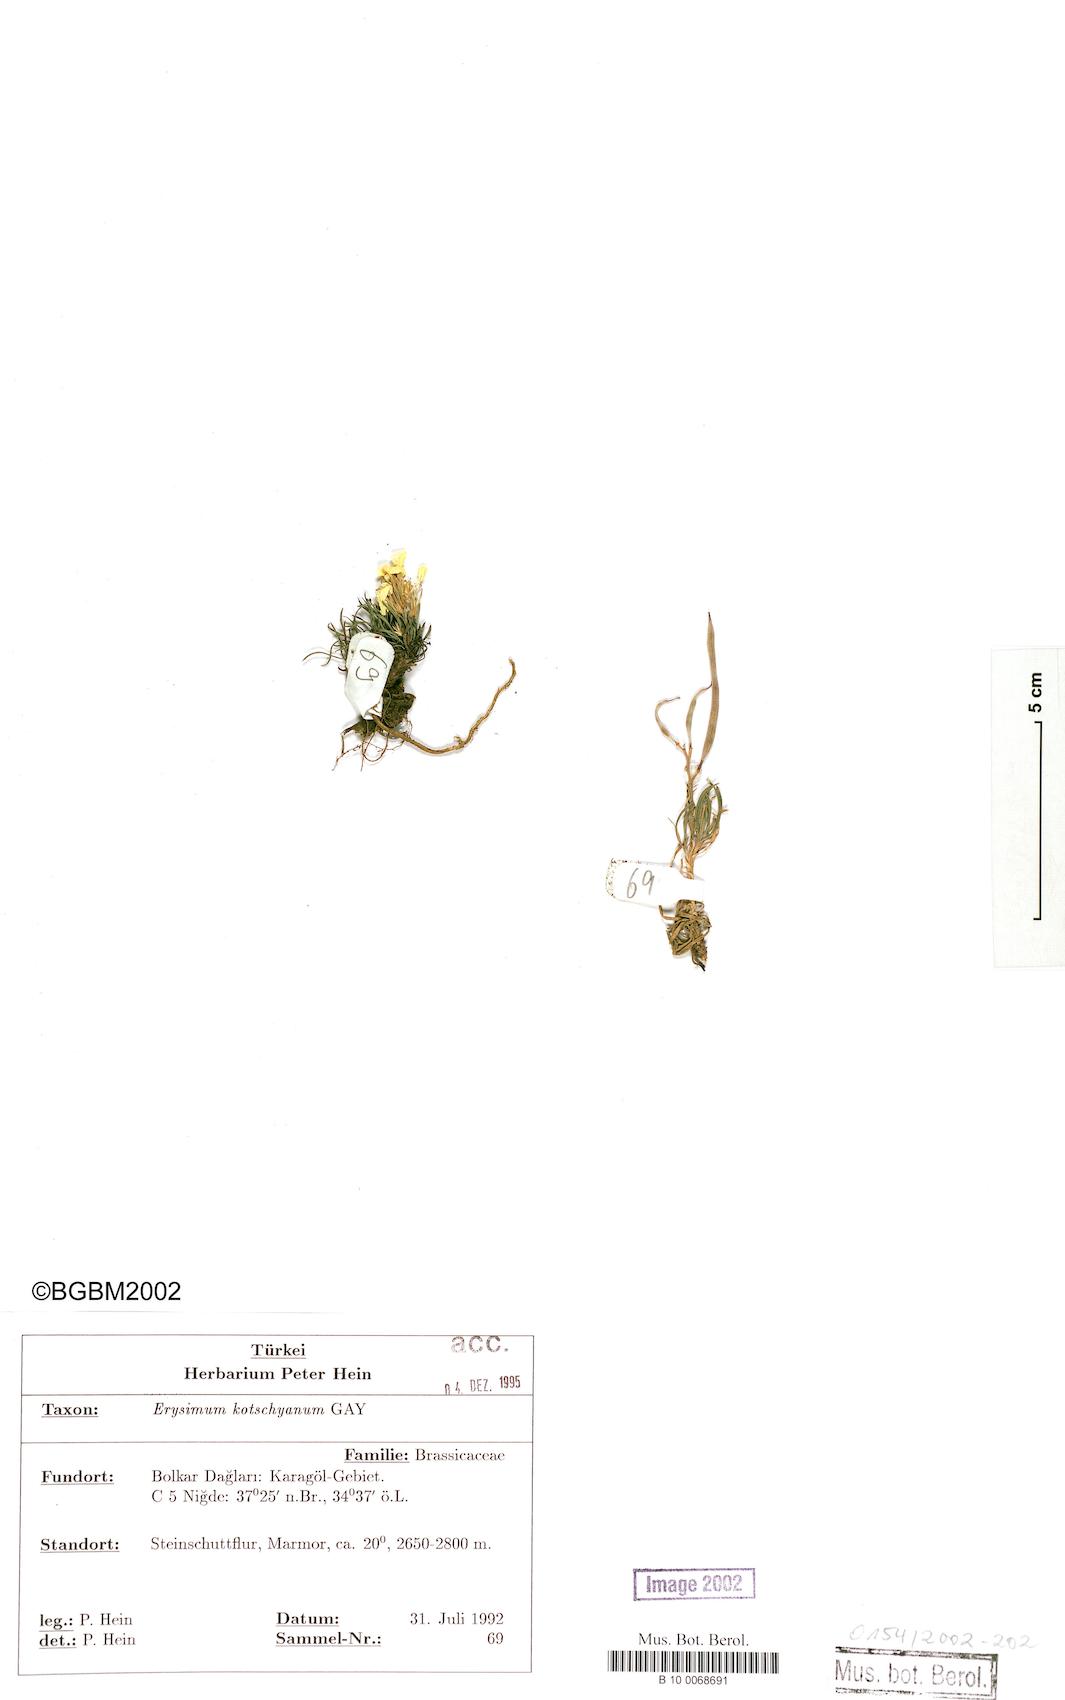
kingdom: Plantae
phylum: Tracheophyta
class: Magnoliopsida
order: Brassicales
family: Brassicaceae
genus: Erysimum
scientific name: Erysimum kotschyanum
